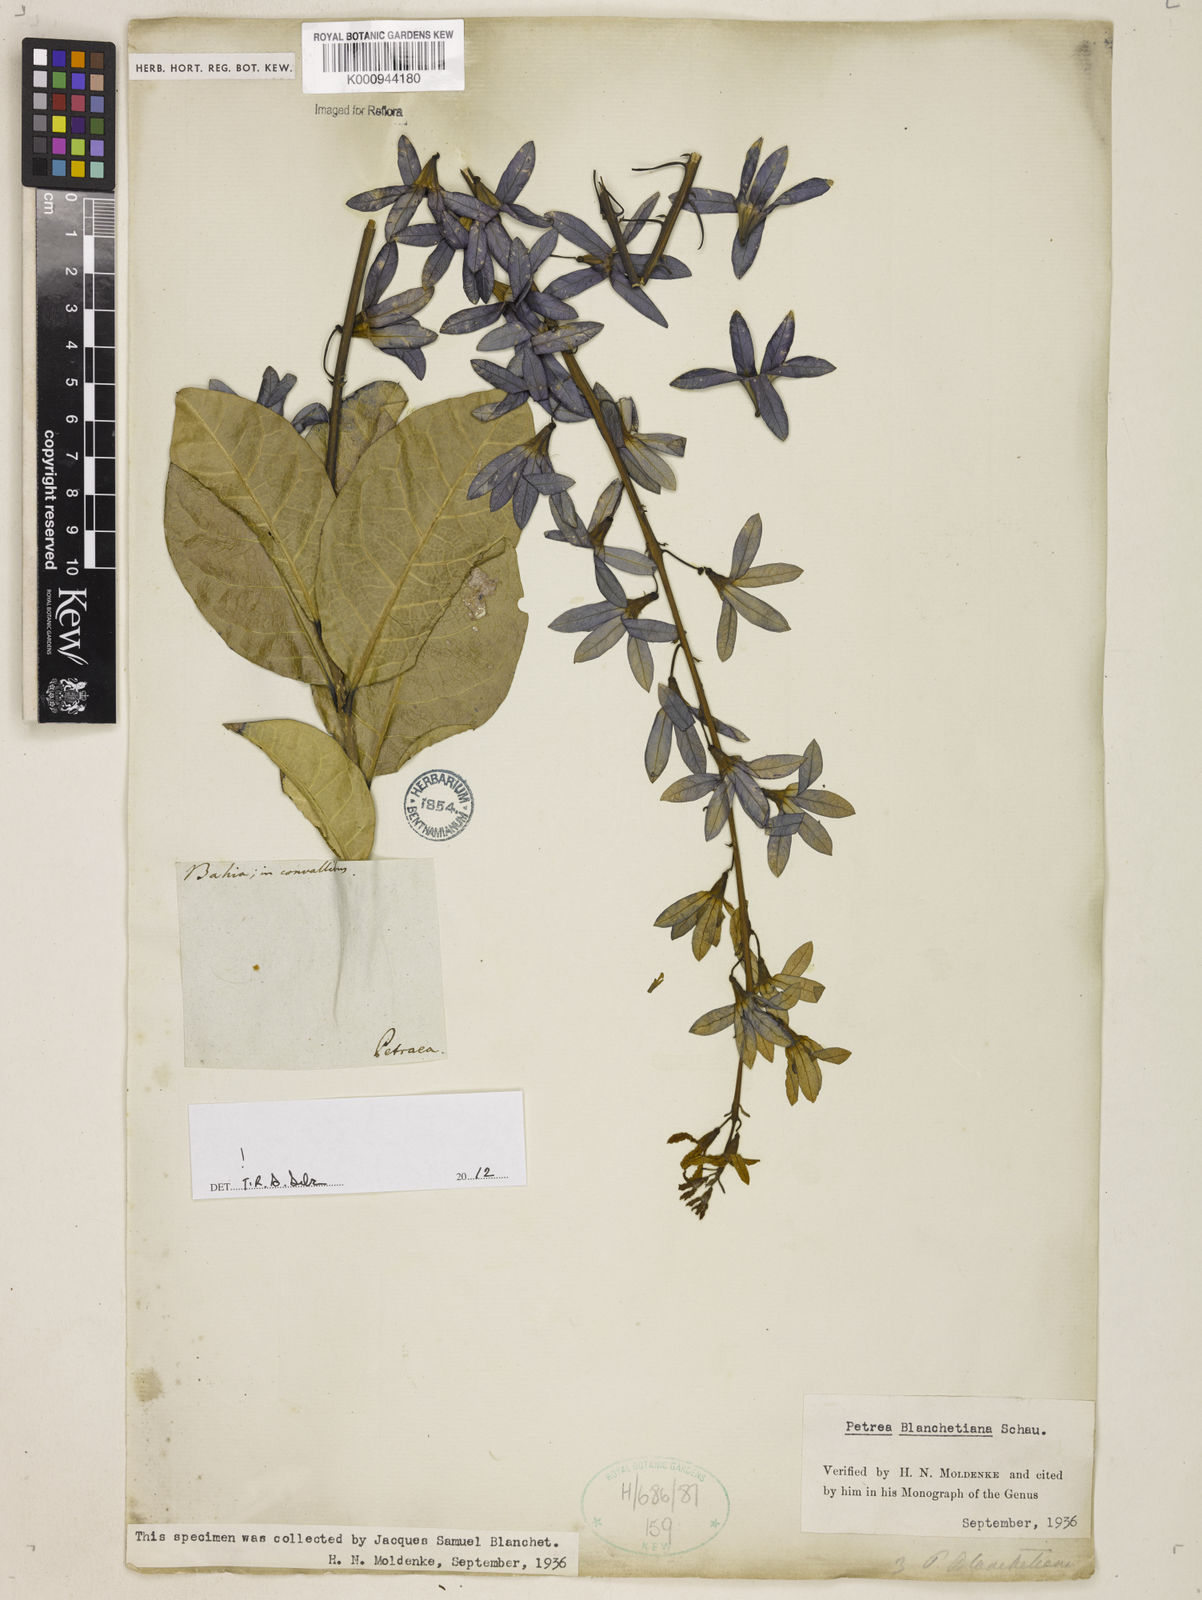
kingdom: Plantae
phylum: Tracheophyta
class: Magnoliopsida
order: Lamiales
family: Verbenaceae
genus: Petrea
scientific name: Petrea bracteata
